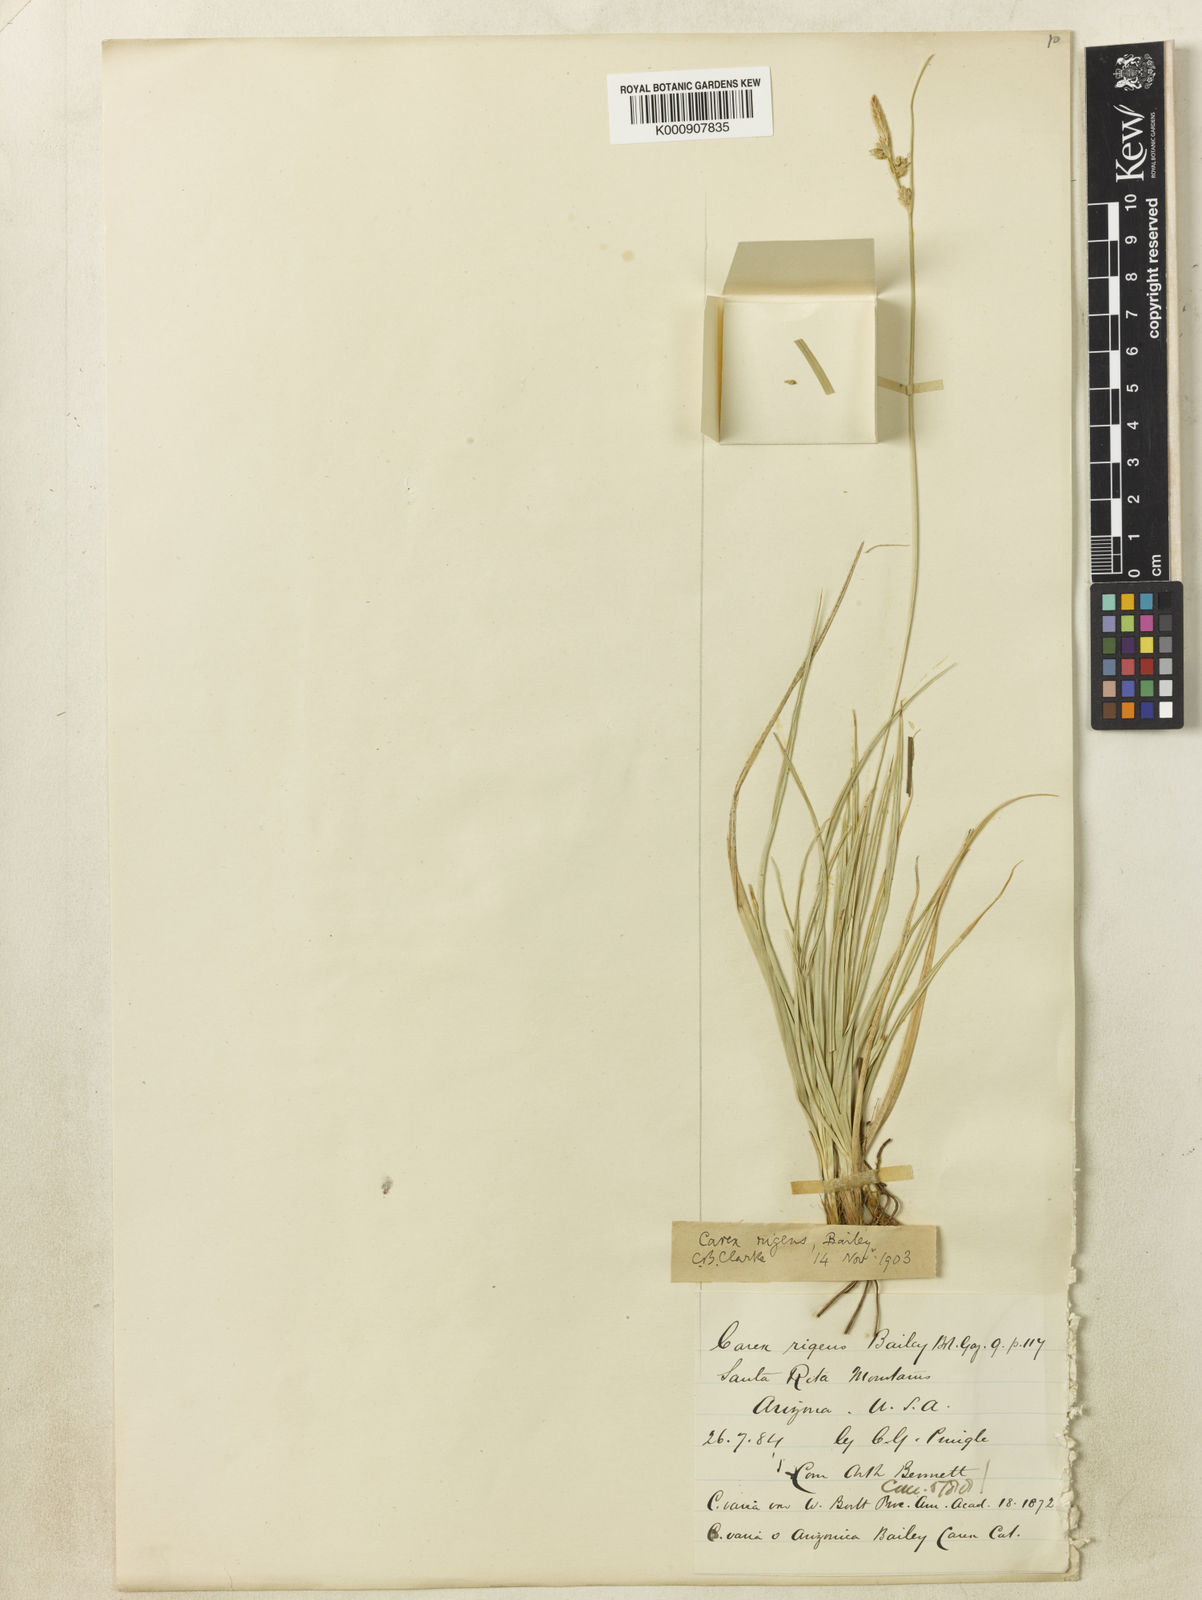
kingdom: Plantae
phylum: Tracheophyta
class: Liliopsida
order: Poales
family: Cyperaceae
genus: Carex
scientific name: Carex maritima
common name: Curved sedge
